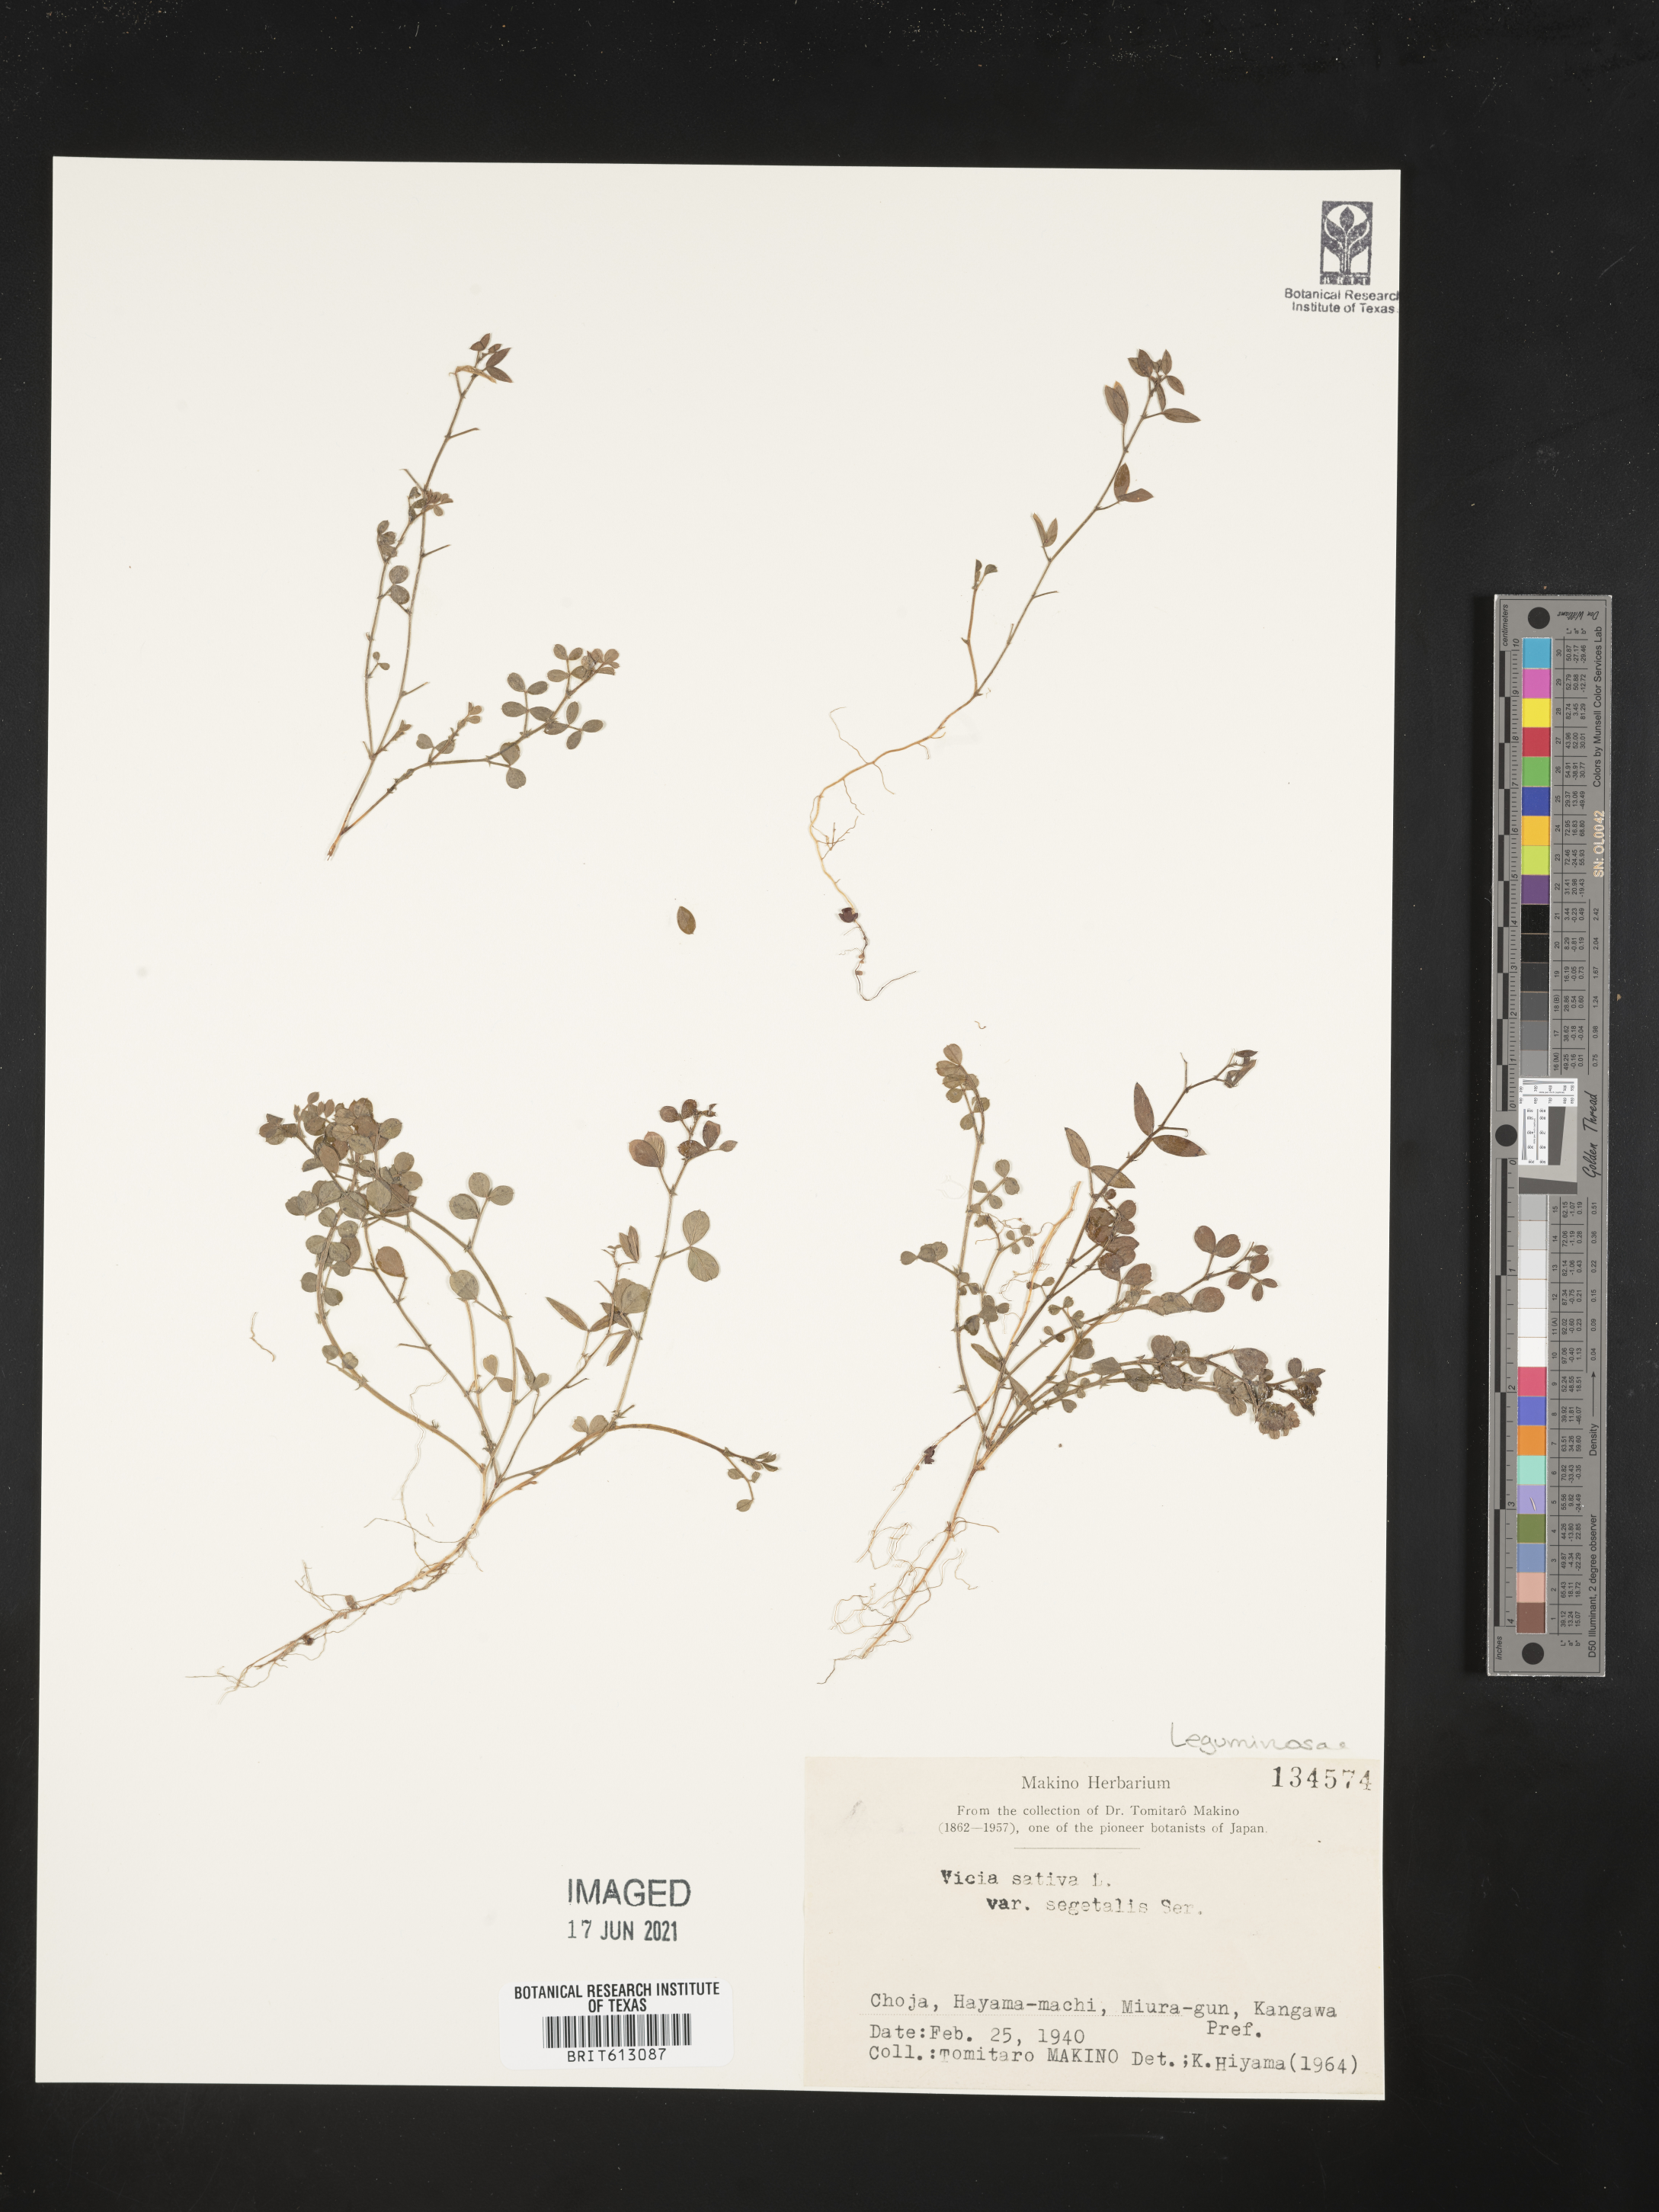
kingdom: Plantae
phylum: Tracheophyta
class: Magnoliopsida
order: Fabales
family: Fabaceae
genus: Vicia
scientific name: Vicia sativa
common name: Garden vetch
